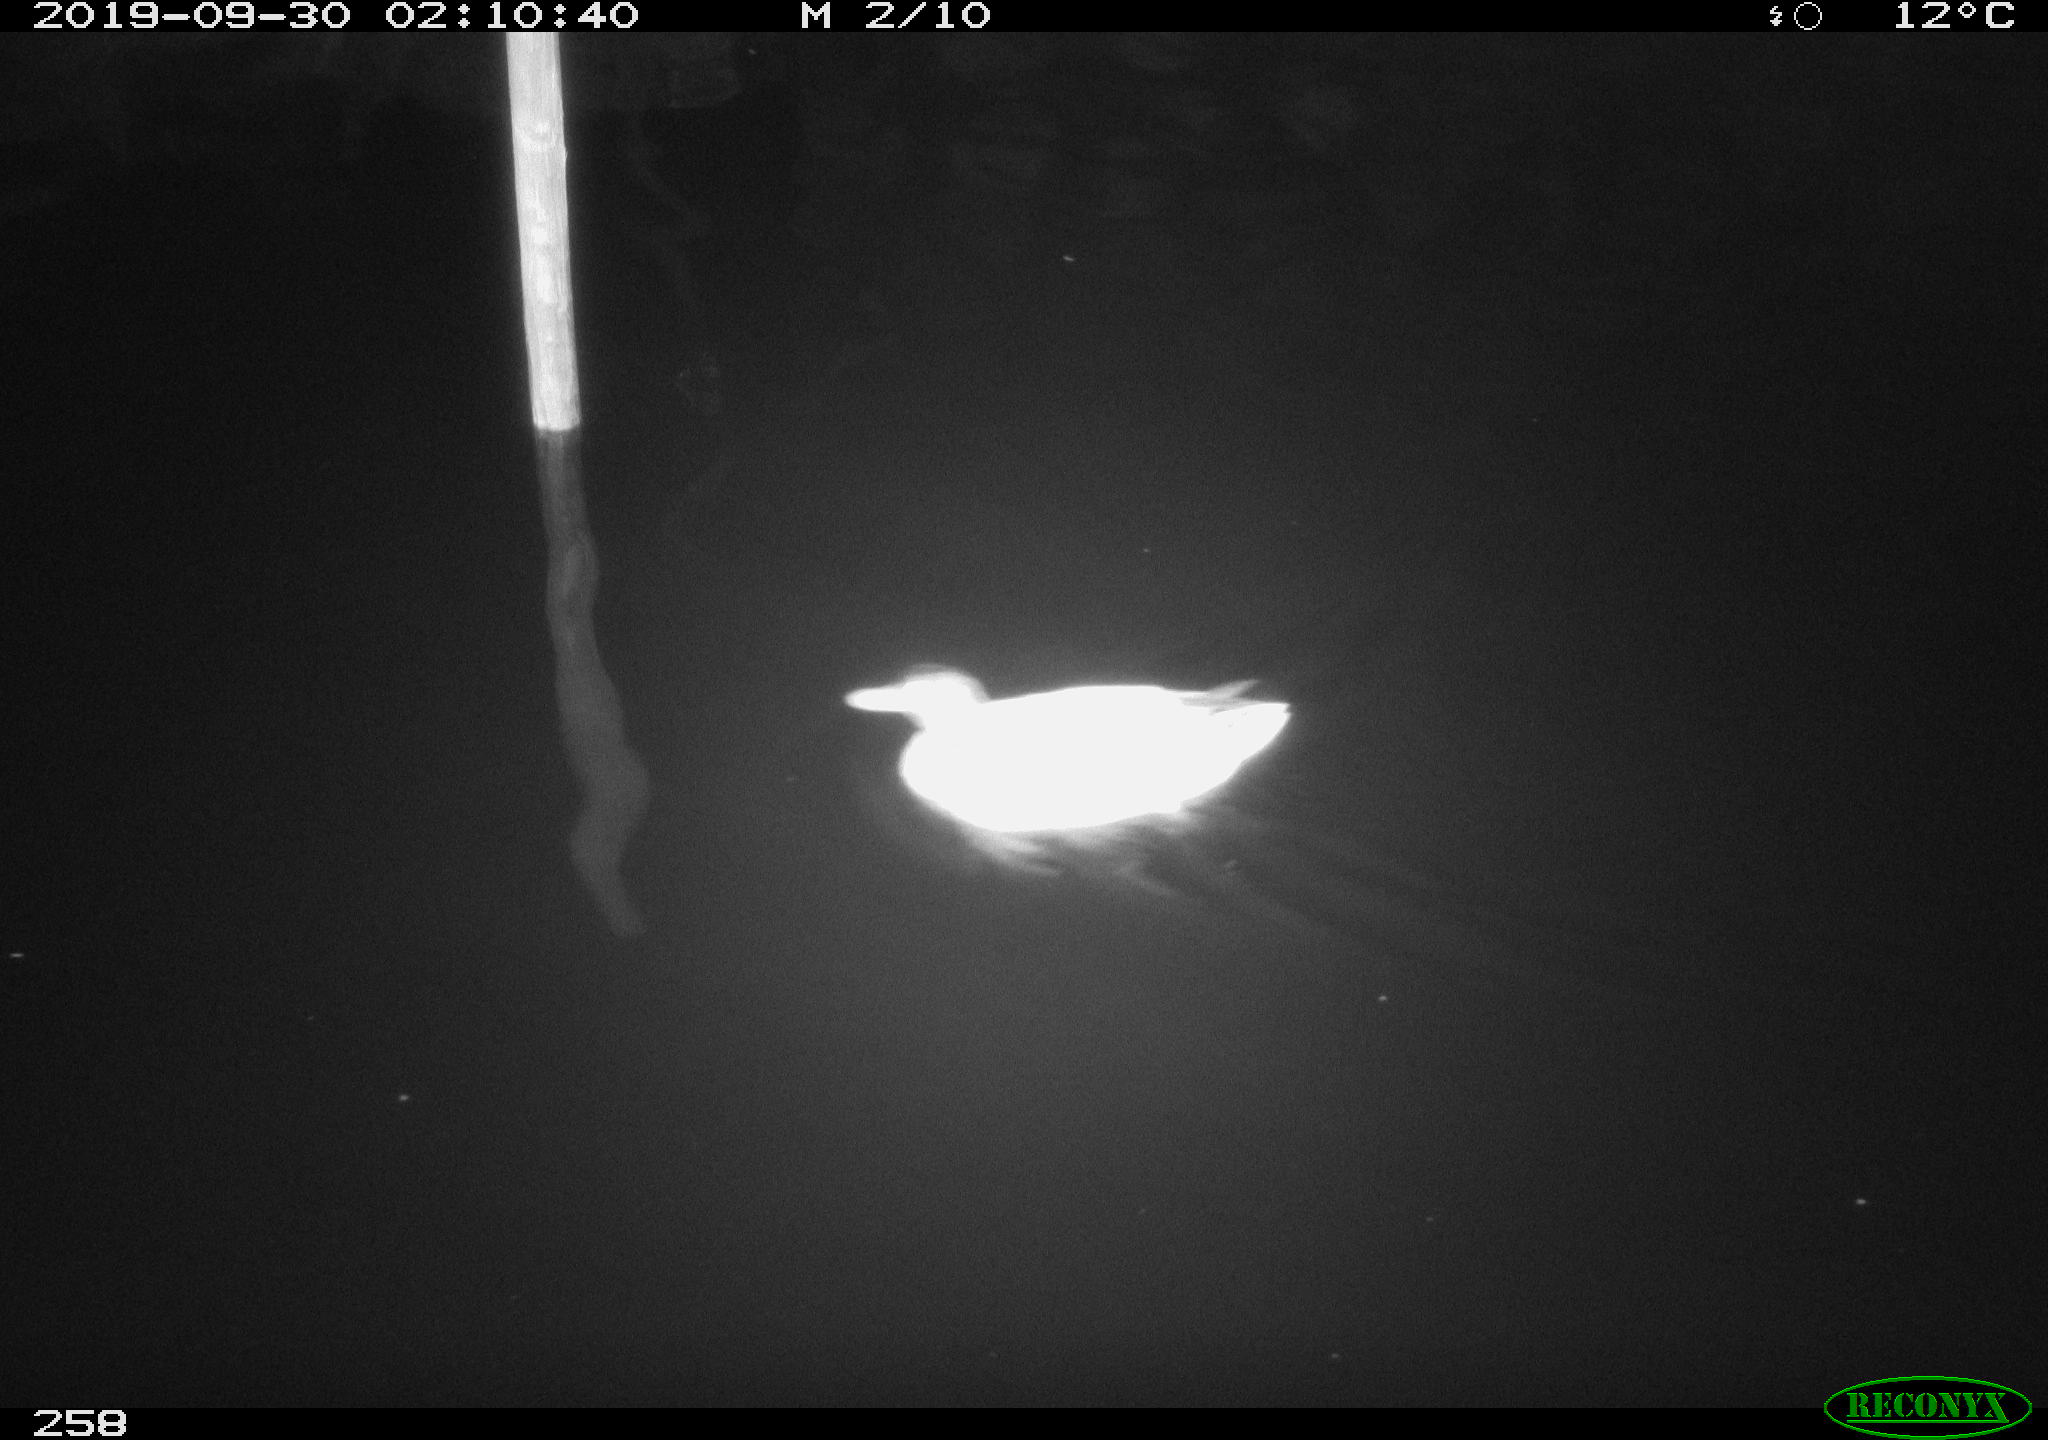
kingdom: Animalia
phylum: Chordata
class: Aves
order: Anseriformes
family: Anatidae
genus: Anas
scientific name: Anas platyrhynchos
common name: Mallard
